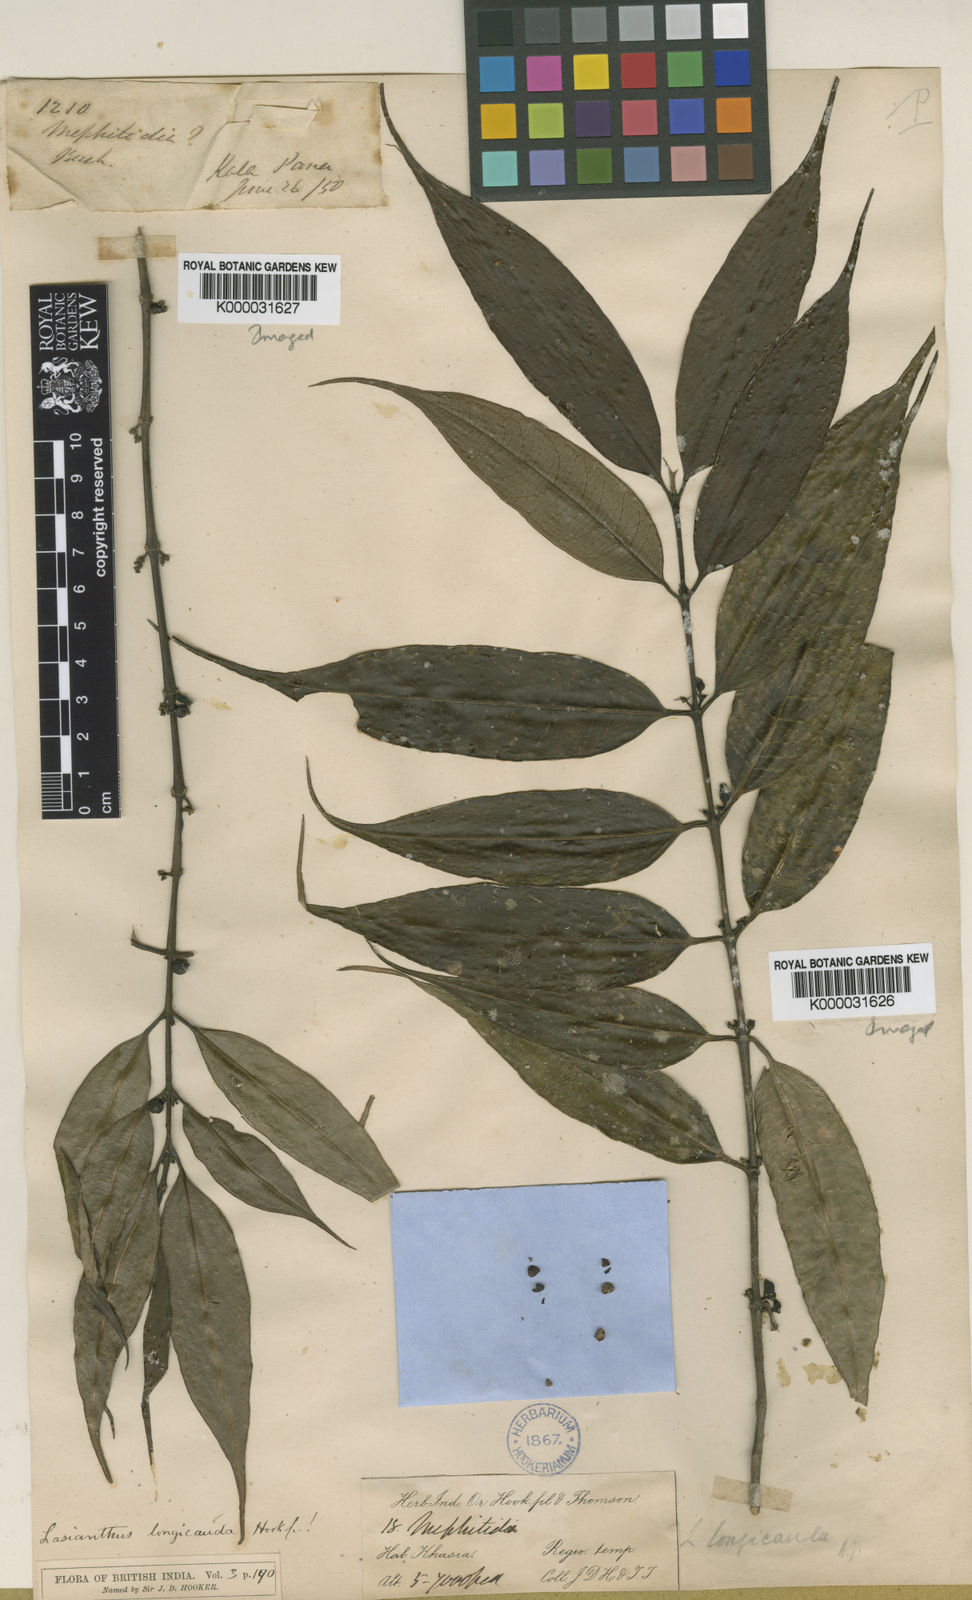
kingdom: Plantae
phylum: Tracheophyta
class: Magnoliopsida
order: Gentianales
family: Rubiaceae
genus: Lasianthus
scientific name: Lasianthus japonicus
